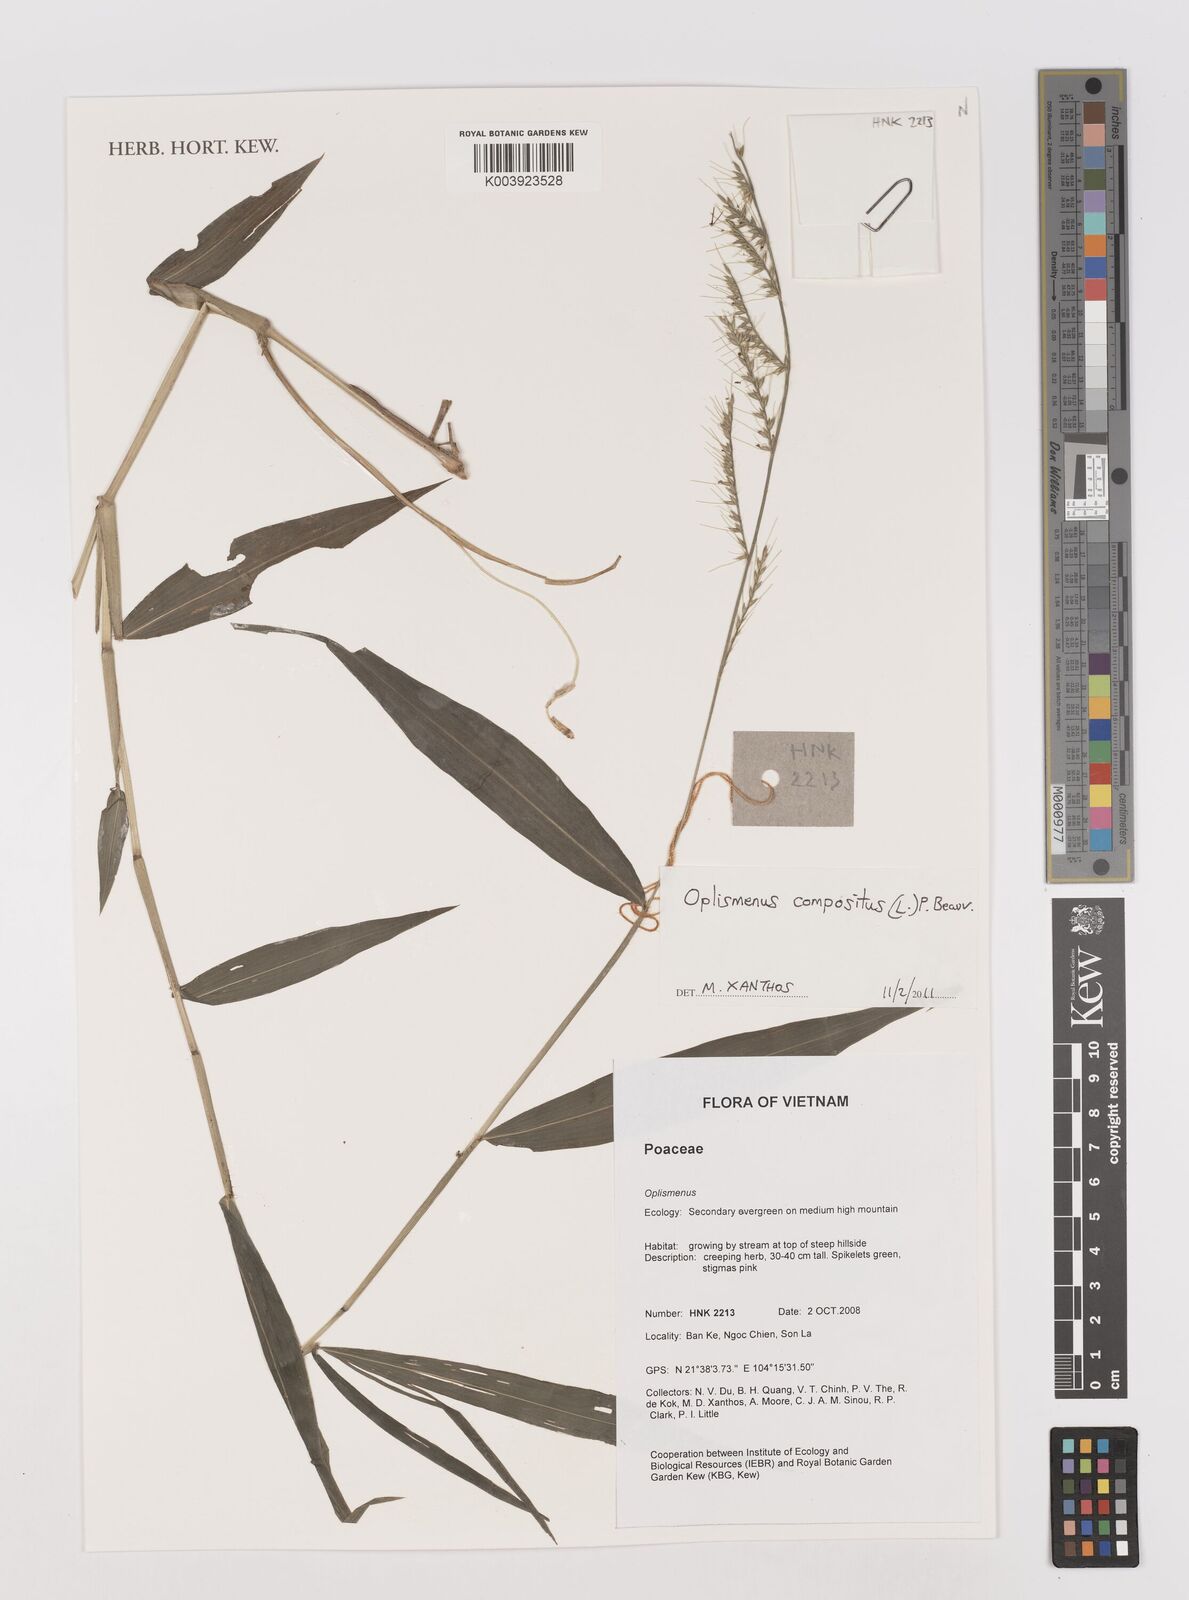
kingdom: Plantae
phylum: Tracheophyta
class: Liliopsida
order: Poales
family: Poaceae
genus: Oplismenus
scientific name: Oplismenus compositus
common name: Running mountain grass
